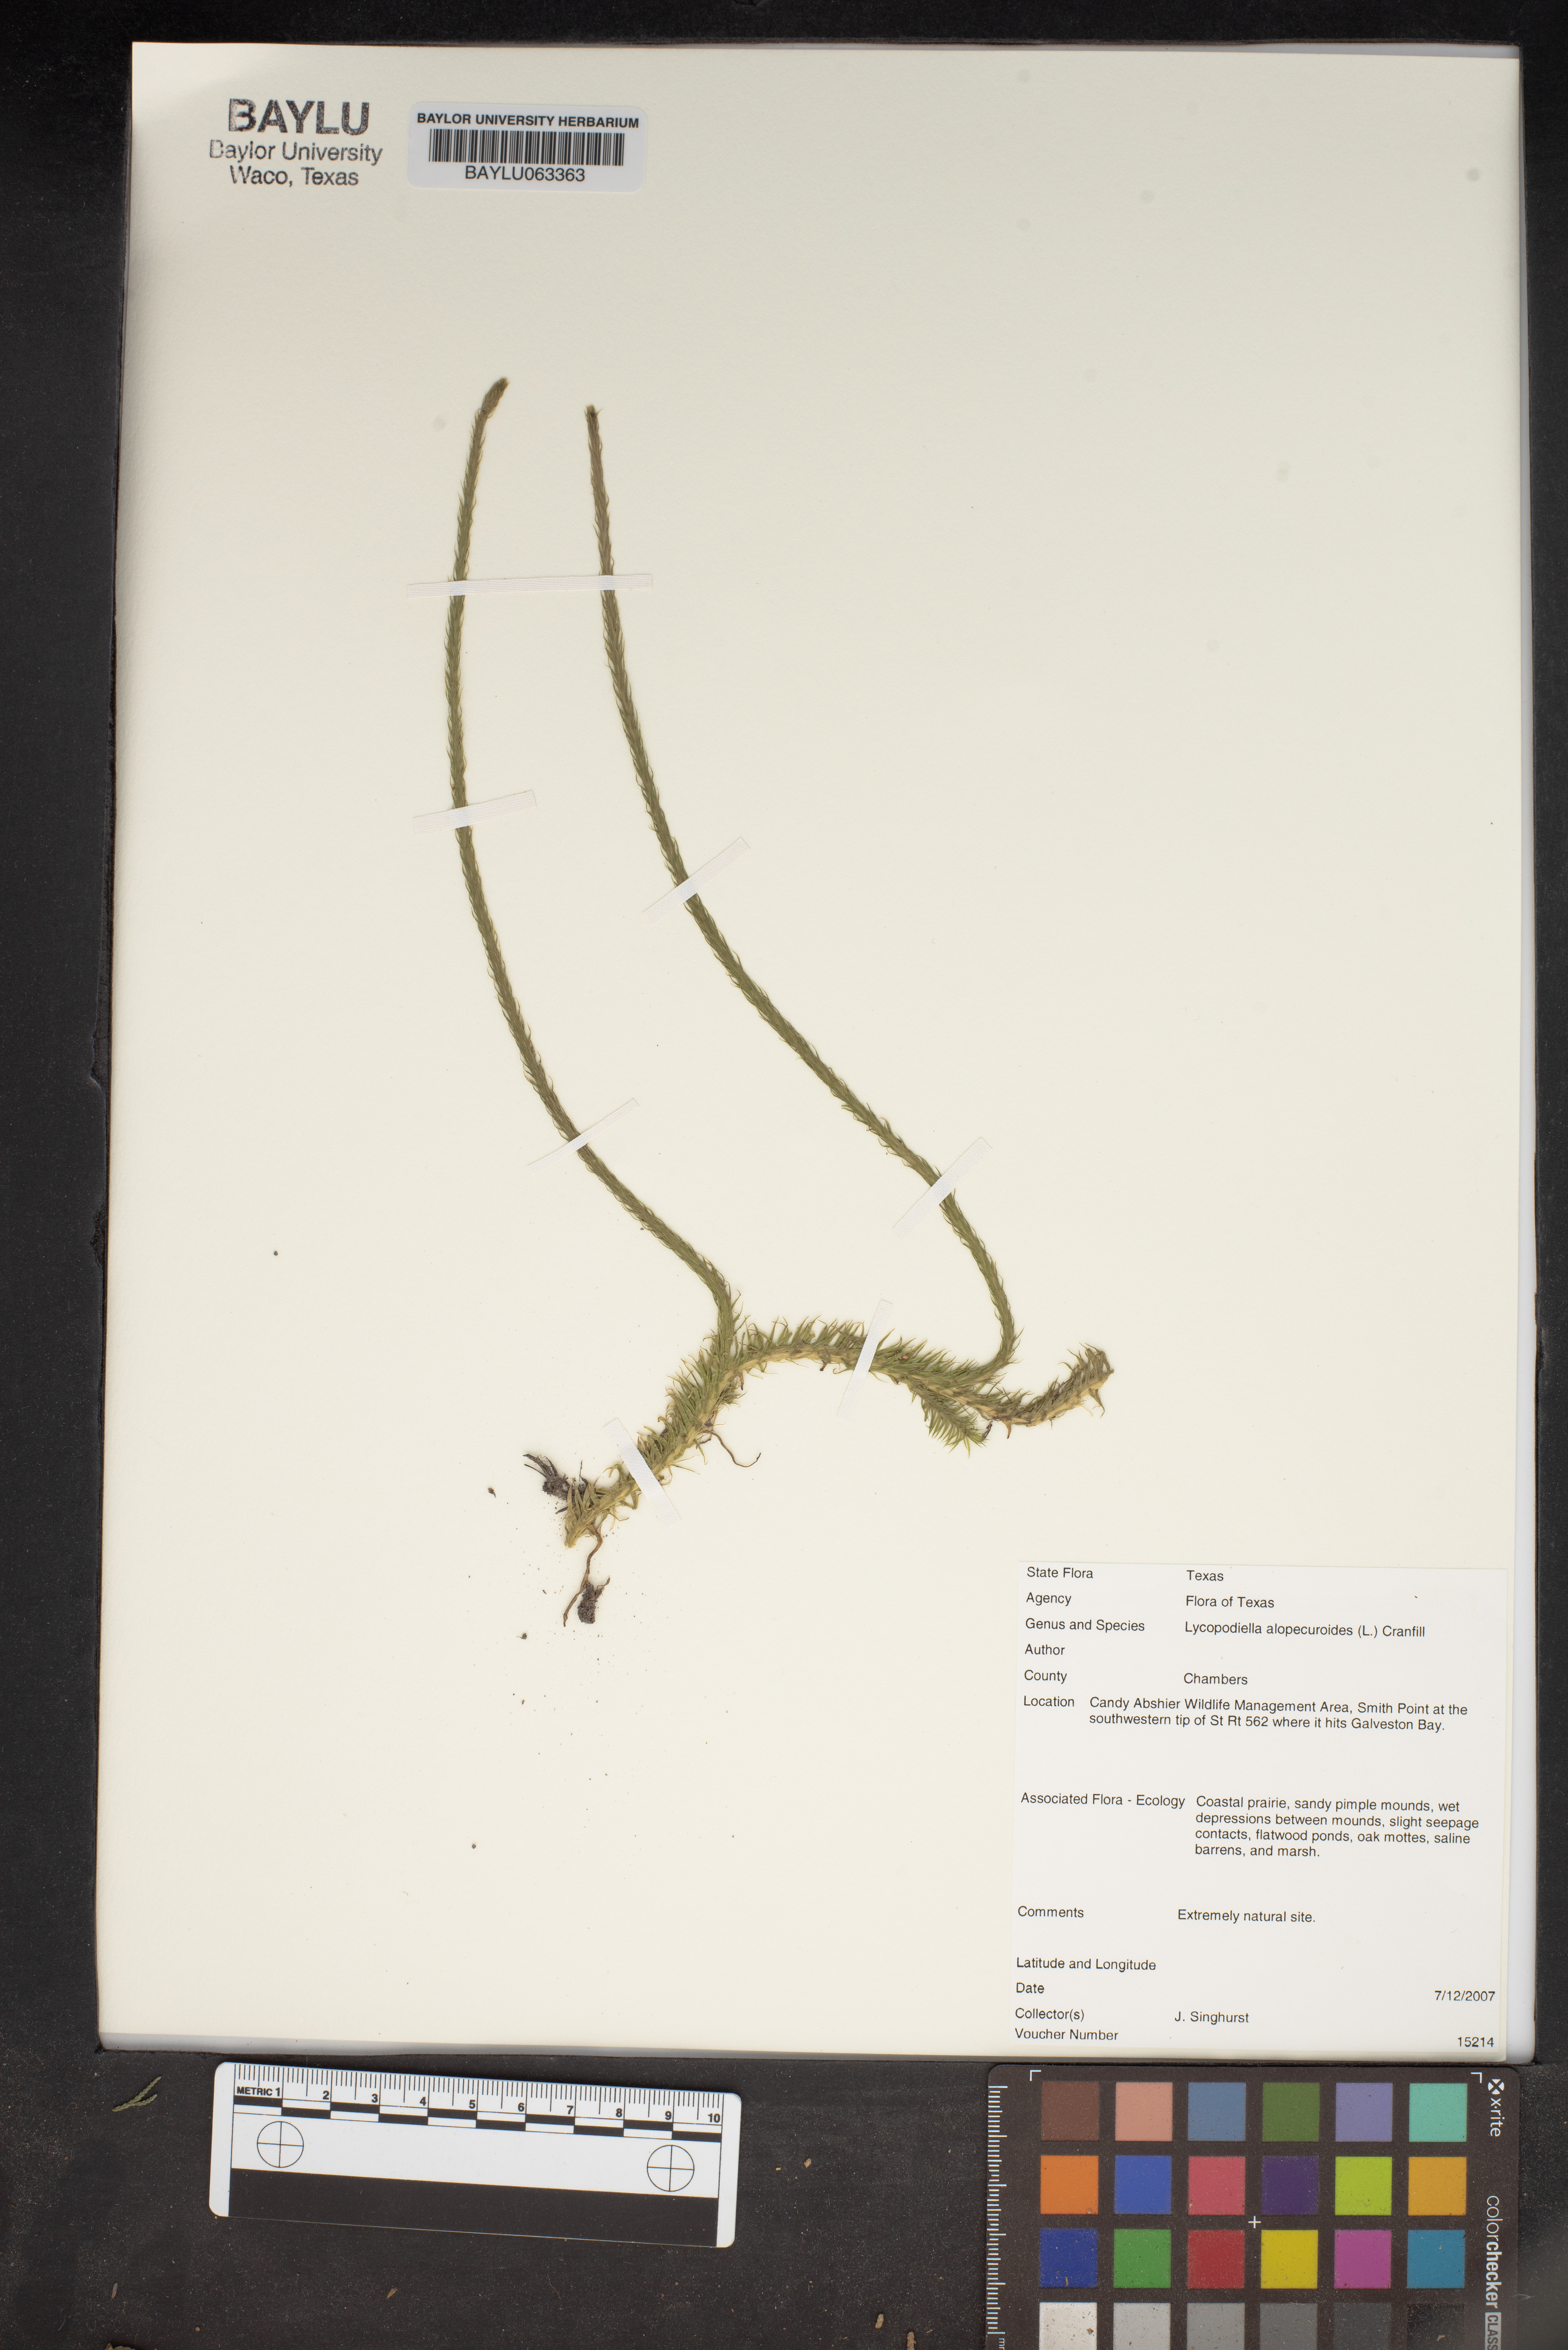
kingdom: Plantae
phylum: Tracheophyta
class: Lycopodiopsida
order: Lycopodiales
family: Lycopodiaceae
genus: Lycopodiella
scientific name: Lycopodiella alopecuroides
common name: Foxtail clubmoss
